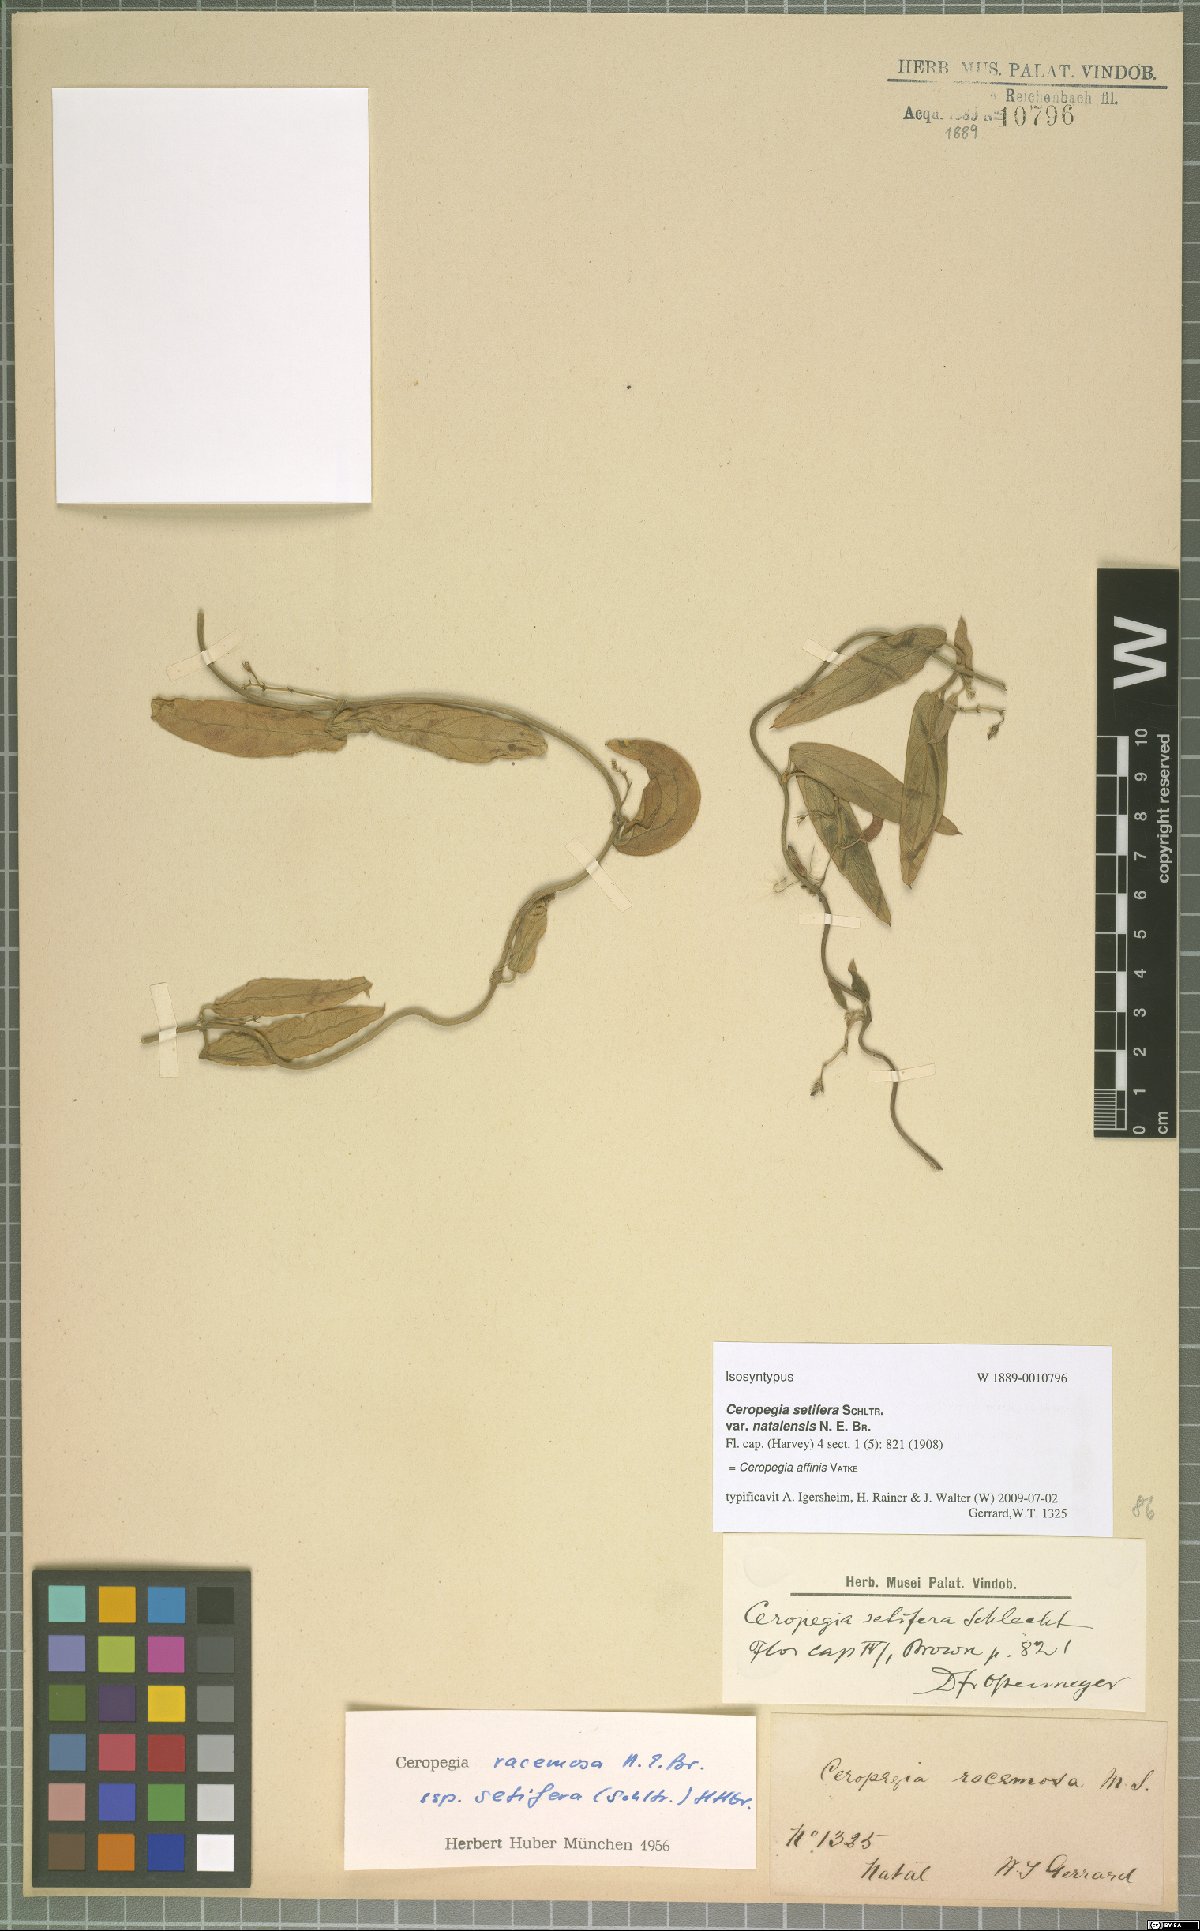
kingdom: Plantae
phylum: Tracheophyta
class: Magnoliopsida
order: Gentianales
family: Apocynaceae
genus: Ceropegia
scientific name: Ceropegia affinis
